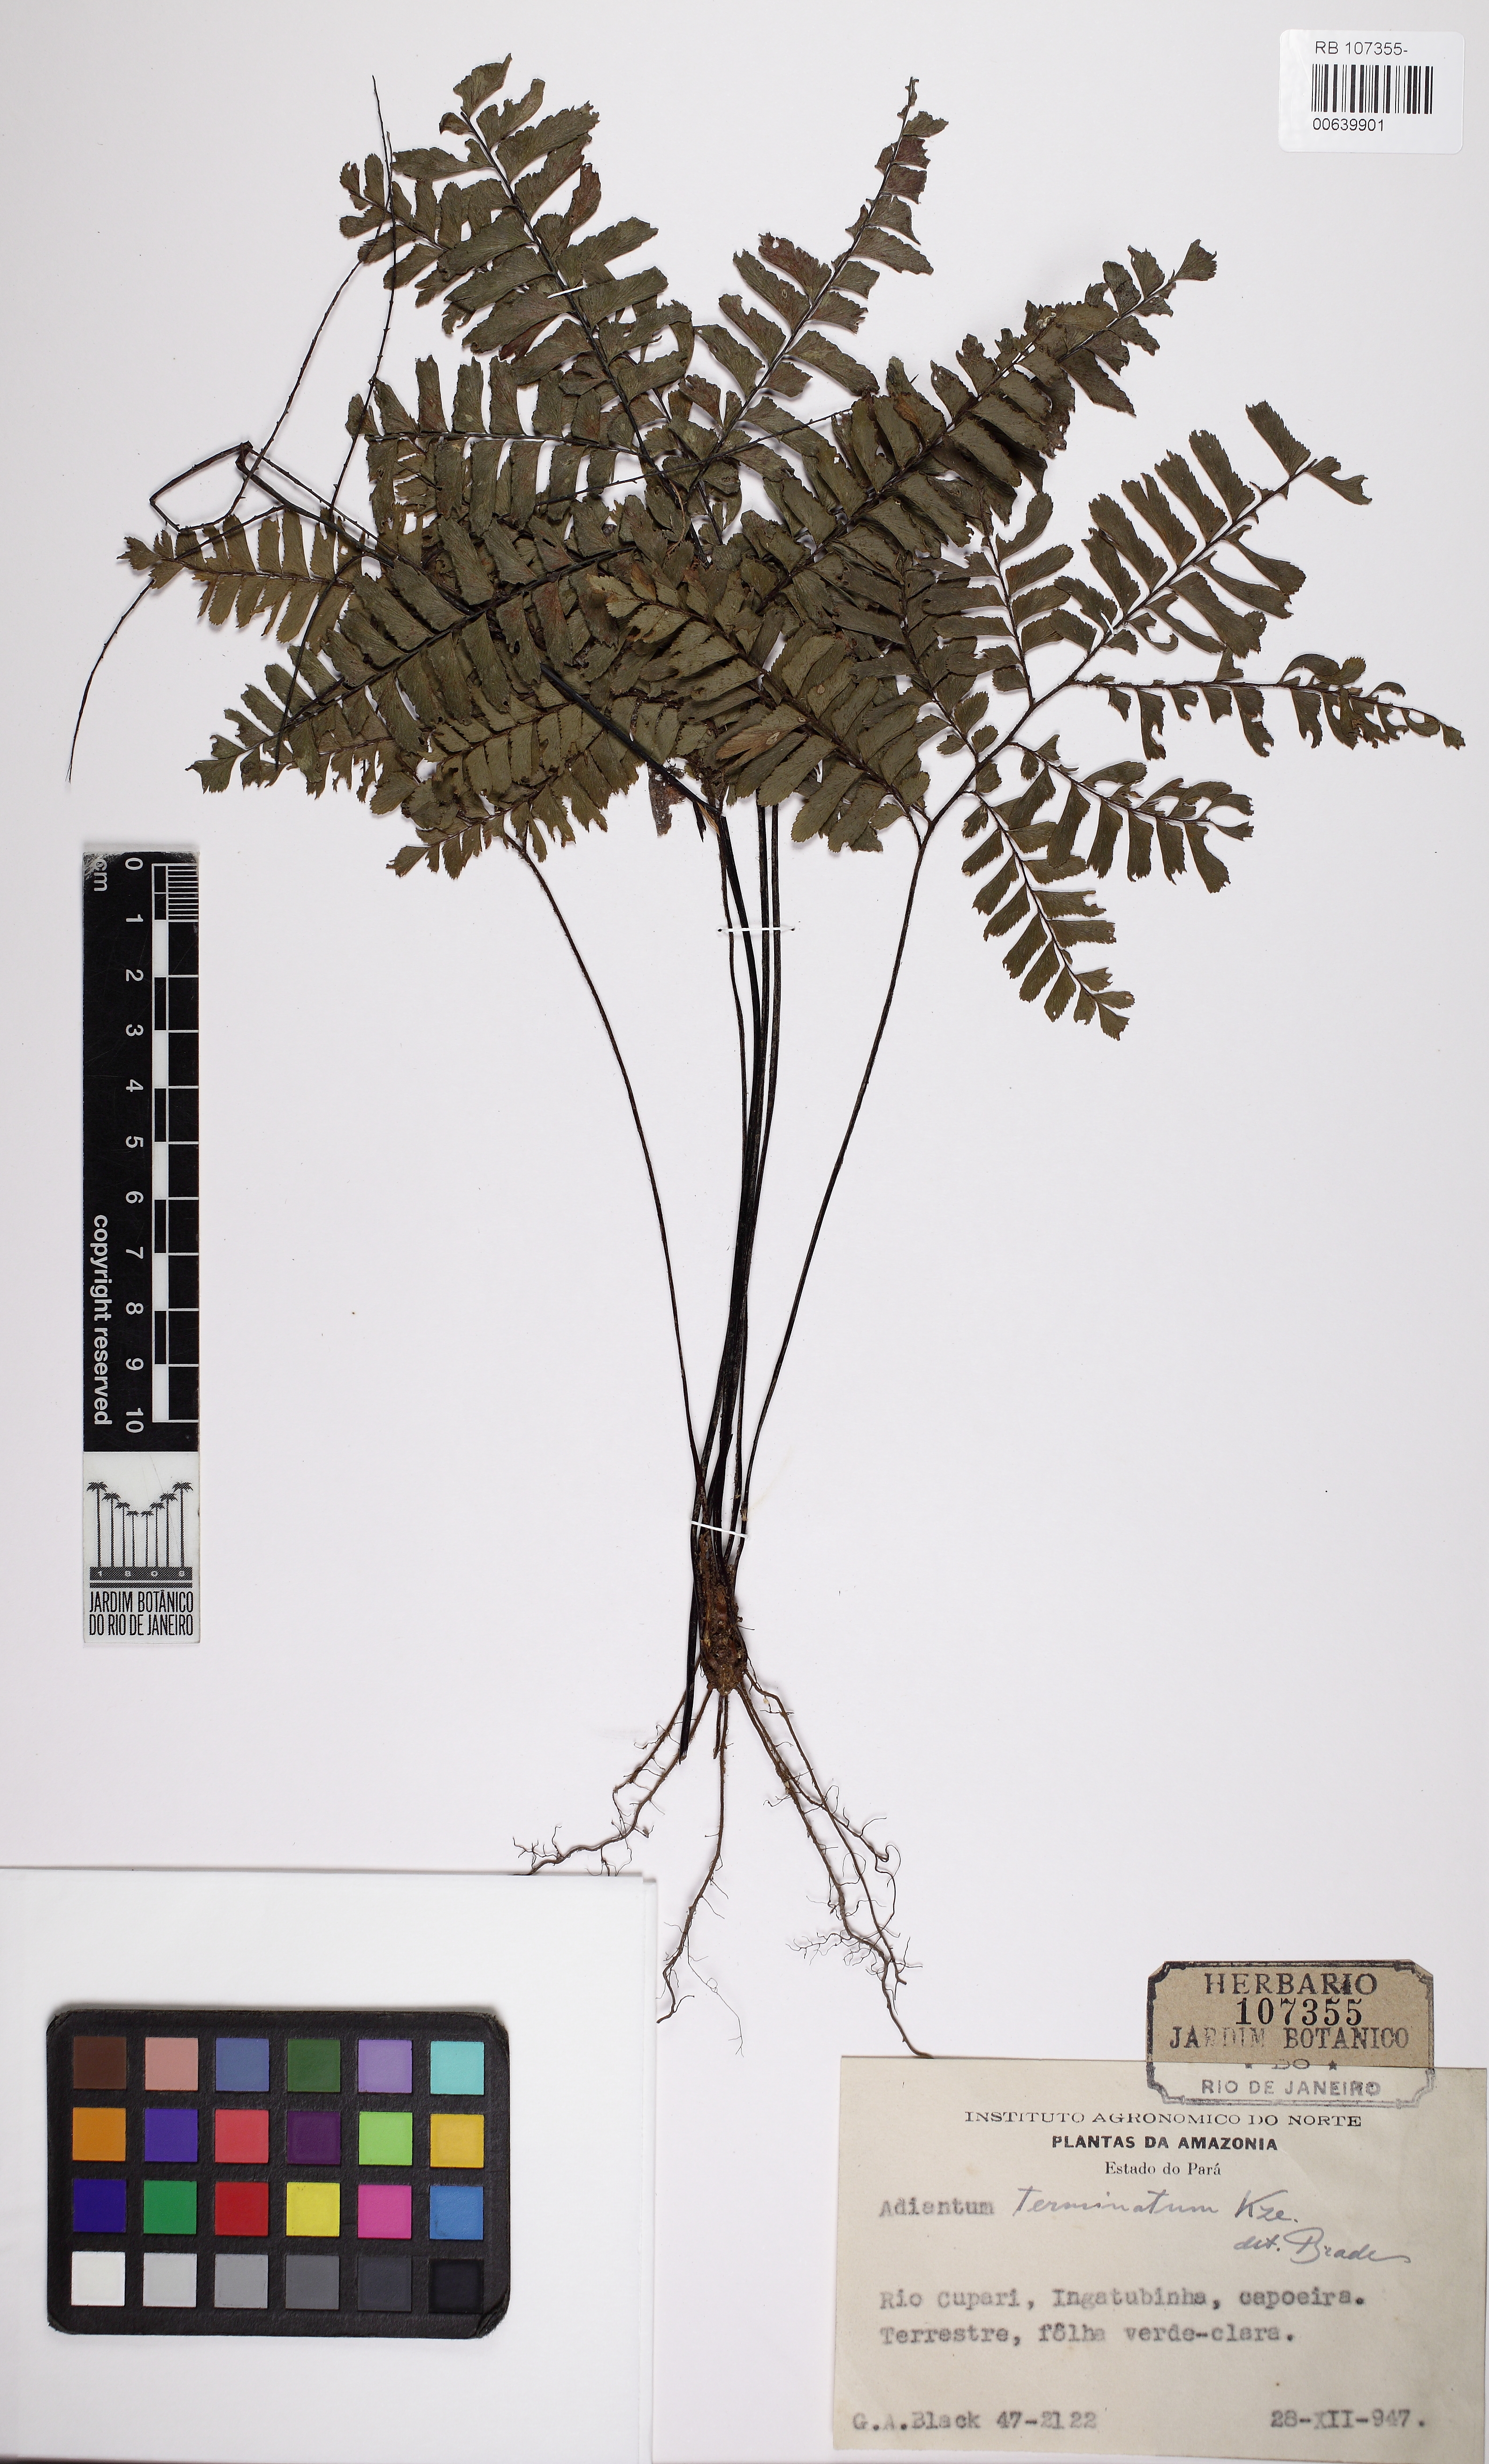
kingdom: Plantae
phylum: Tracheophyta
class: Polypodiopsida
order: Polypodiales
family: Pteridaceae
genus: Adiantum
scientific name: Adiantum terminatum
